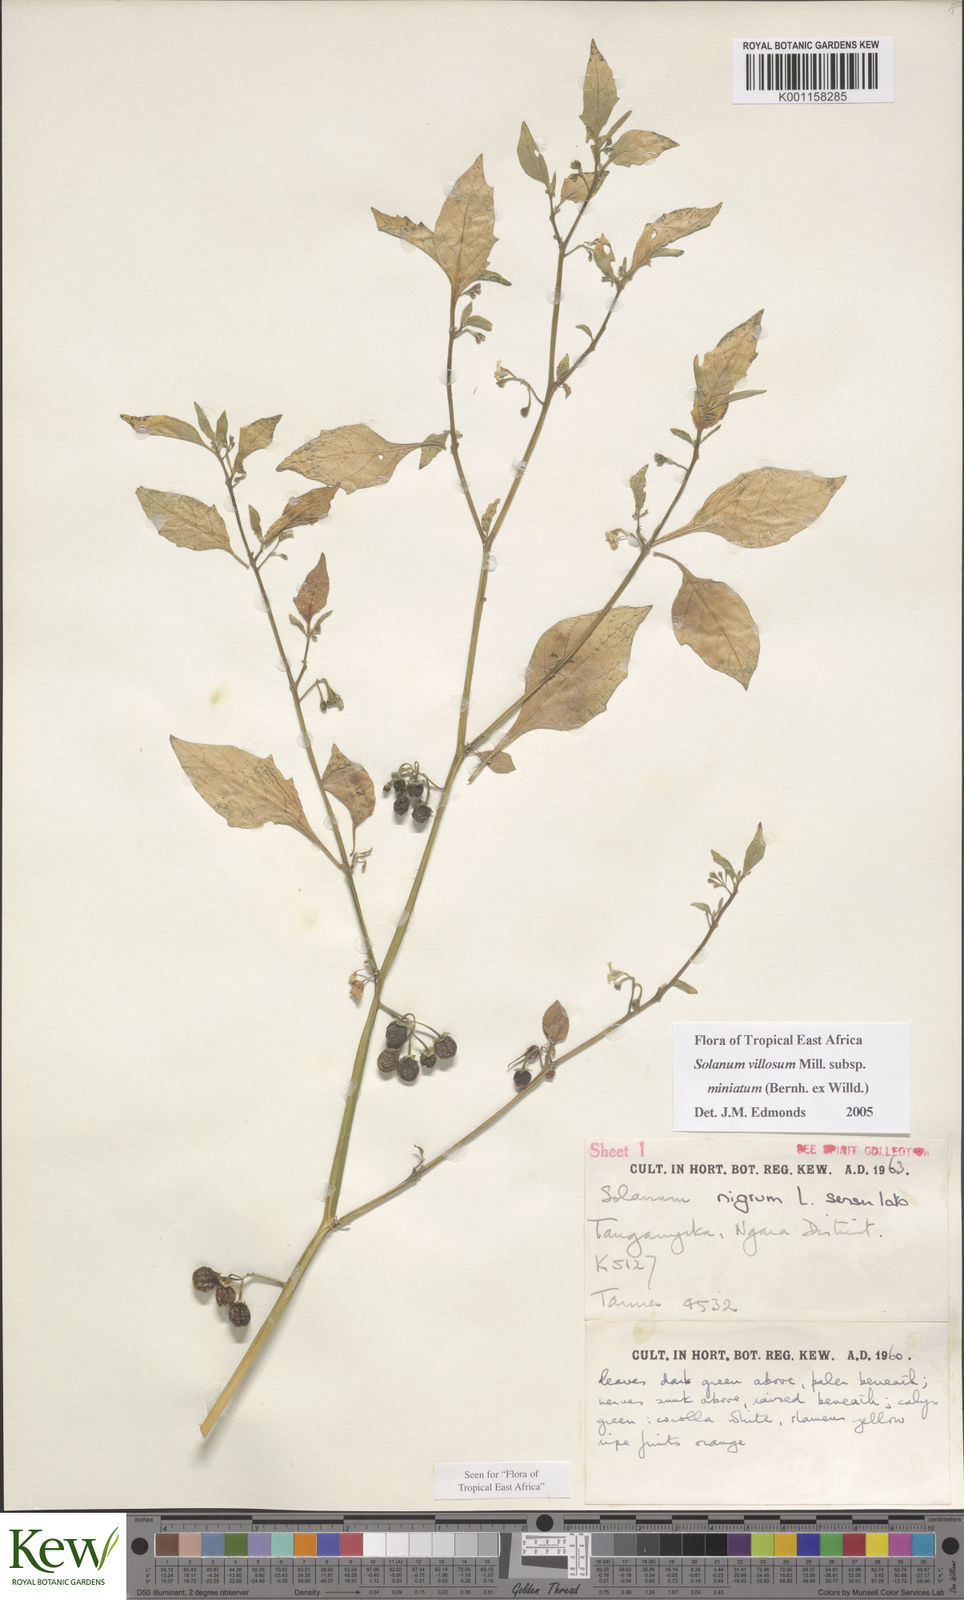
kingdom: Plantae
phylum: Tracheophyta
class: Magnoliopsida
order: Solanales
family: Solanaceae
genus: Solanum
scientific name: Solanum villosum
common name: Red nightshade
